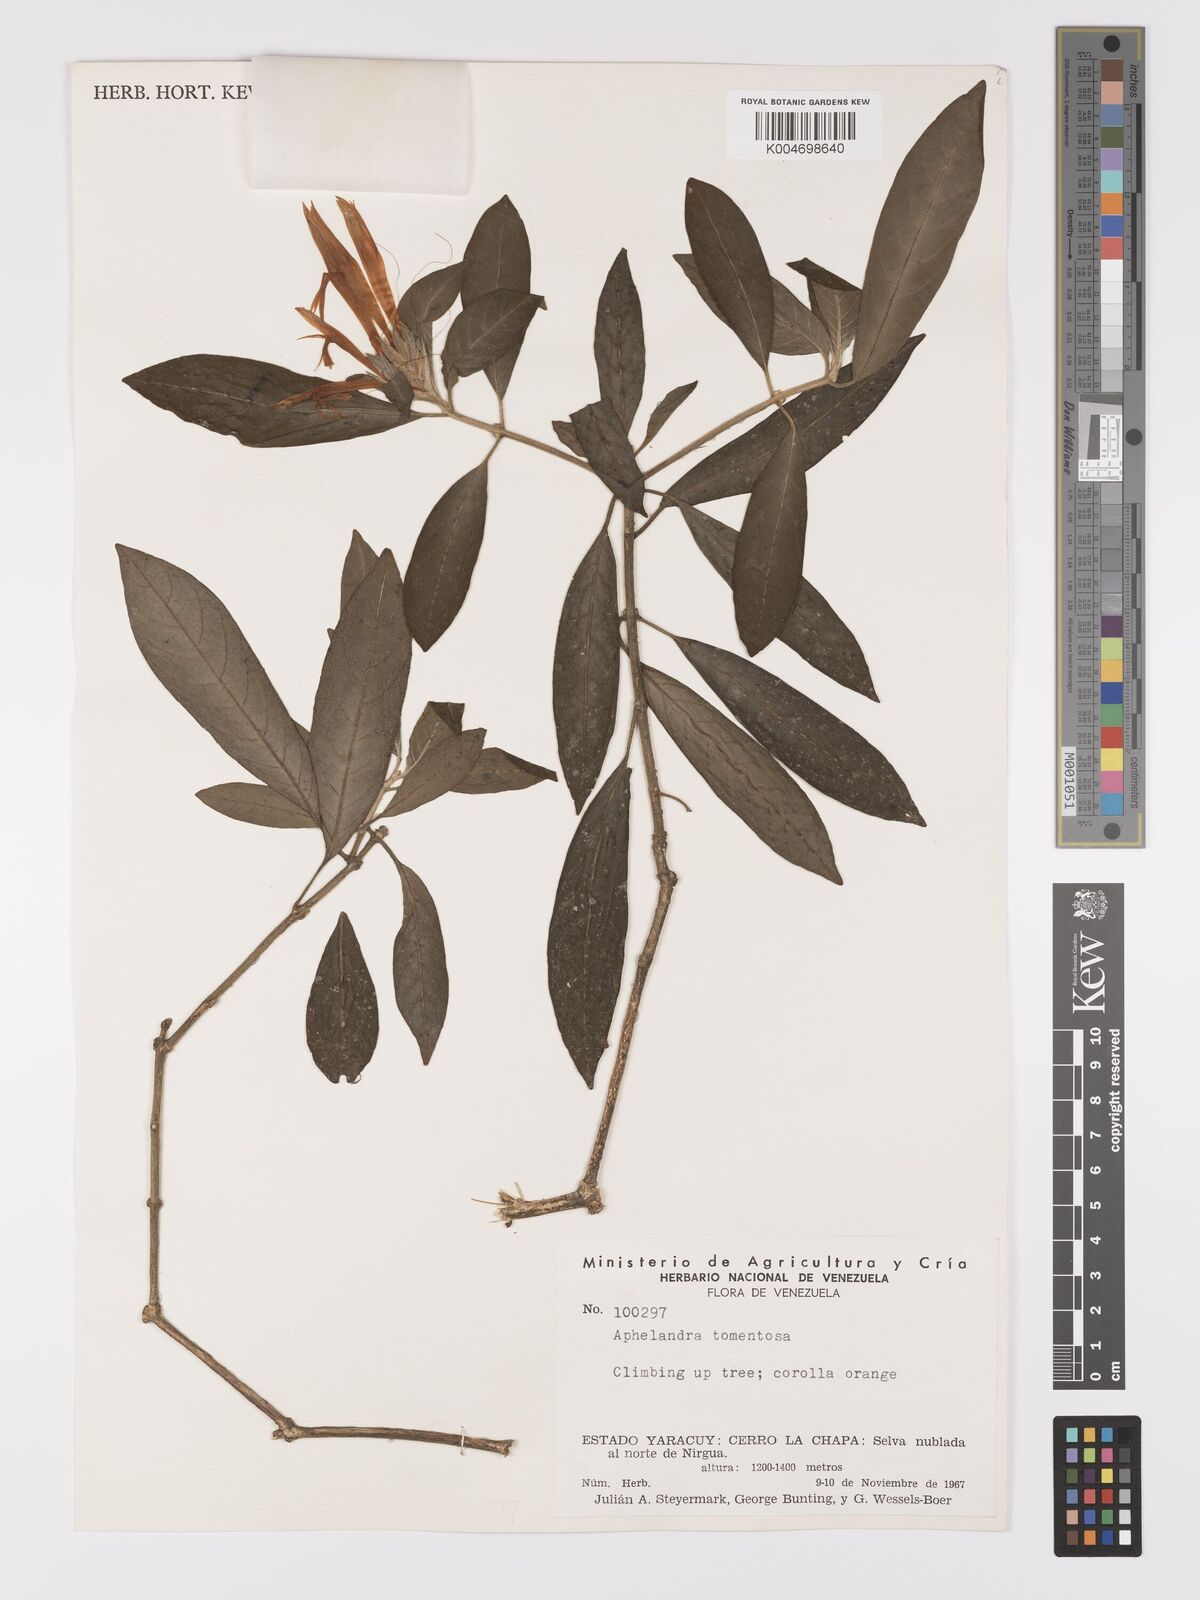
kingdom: Plantae
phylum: Tracheophyta
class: Magnoliopsida
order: Lamiales
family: Acanthaceae
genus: Aphelandra
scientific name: Aphelandra tomentosa
